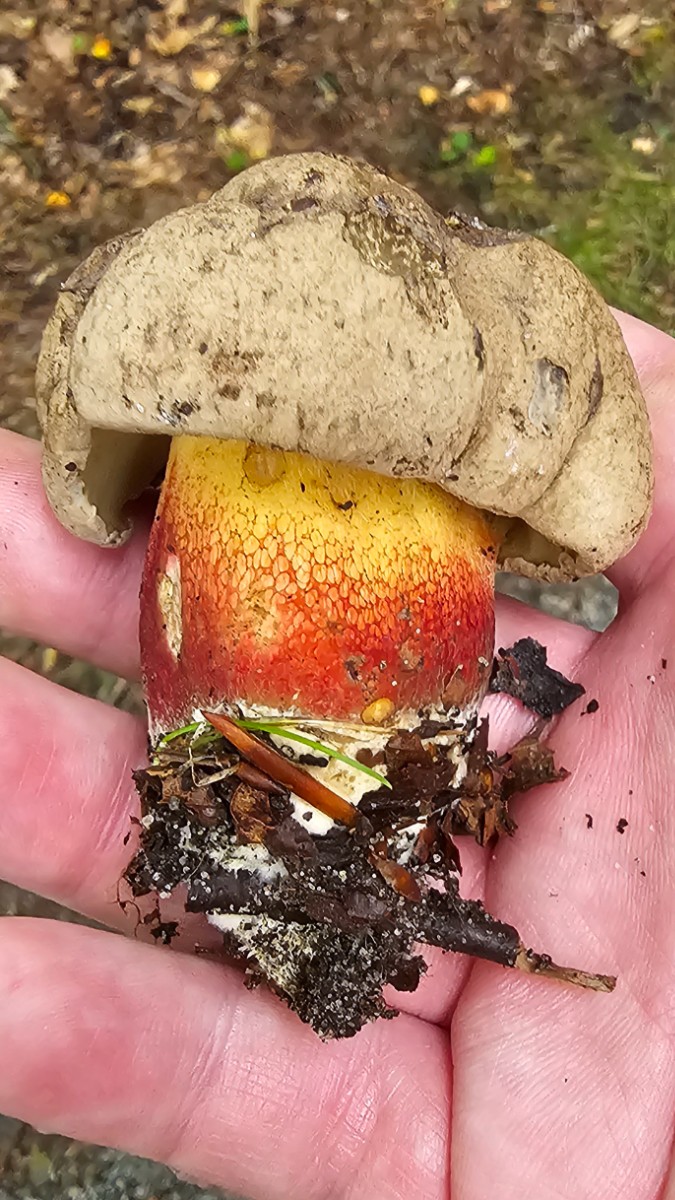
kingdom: Fungi
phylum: Basidiomycota
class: Agaricomycetes
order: Boletales
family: Boletaceae
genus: Caloboletus
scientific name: Caloboletus calopus
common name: skønfodet rørhat
